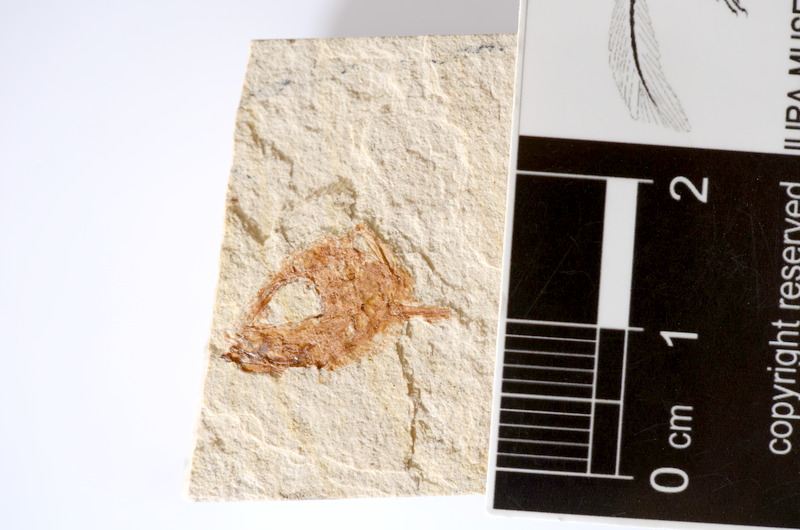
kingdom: Animalia
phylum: Chordata
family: Ascalaboidae
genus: Tharsis
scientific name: Tharsis dubius
